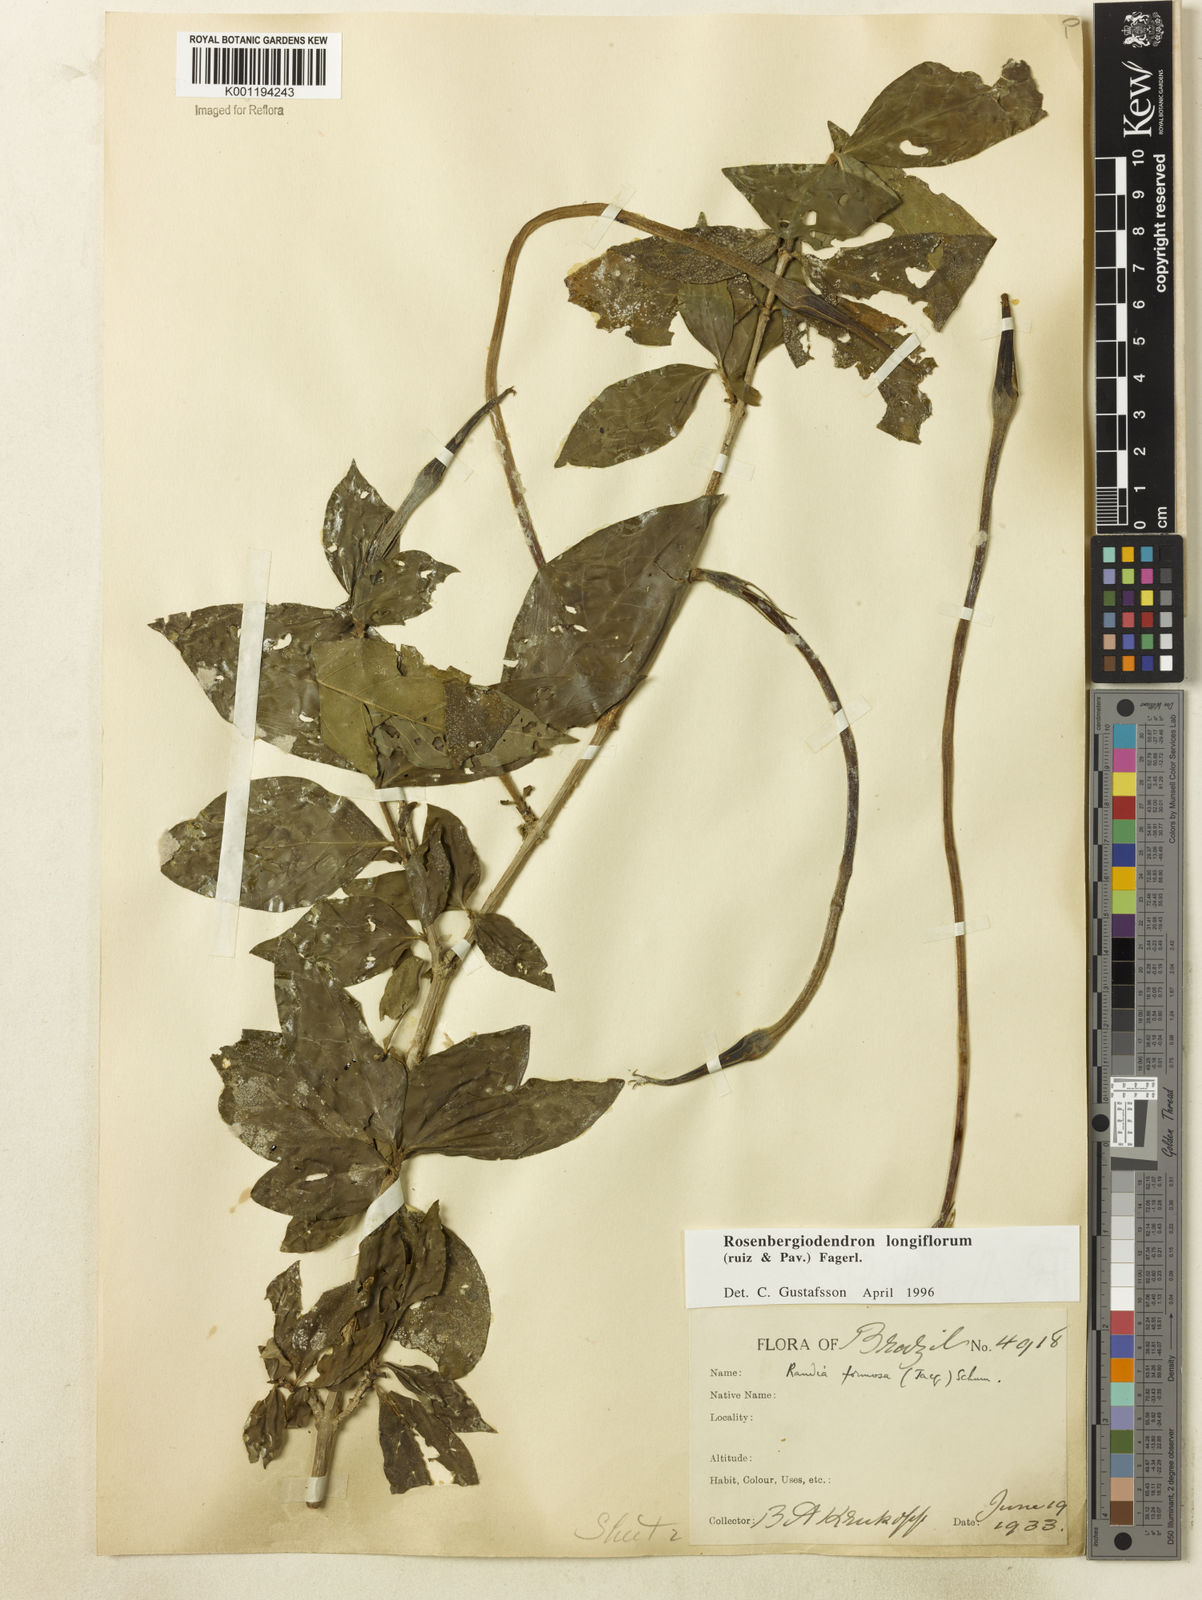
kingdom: Plantae
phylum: Tracheophyta
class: Magnoliopsida
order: Gentianales
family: Rubiaceae
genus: Rosenbergiodendron
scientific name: Rosenbergiodendron longiflorum
